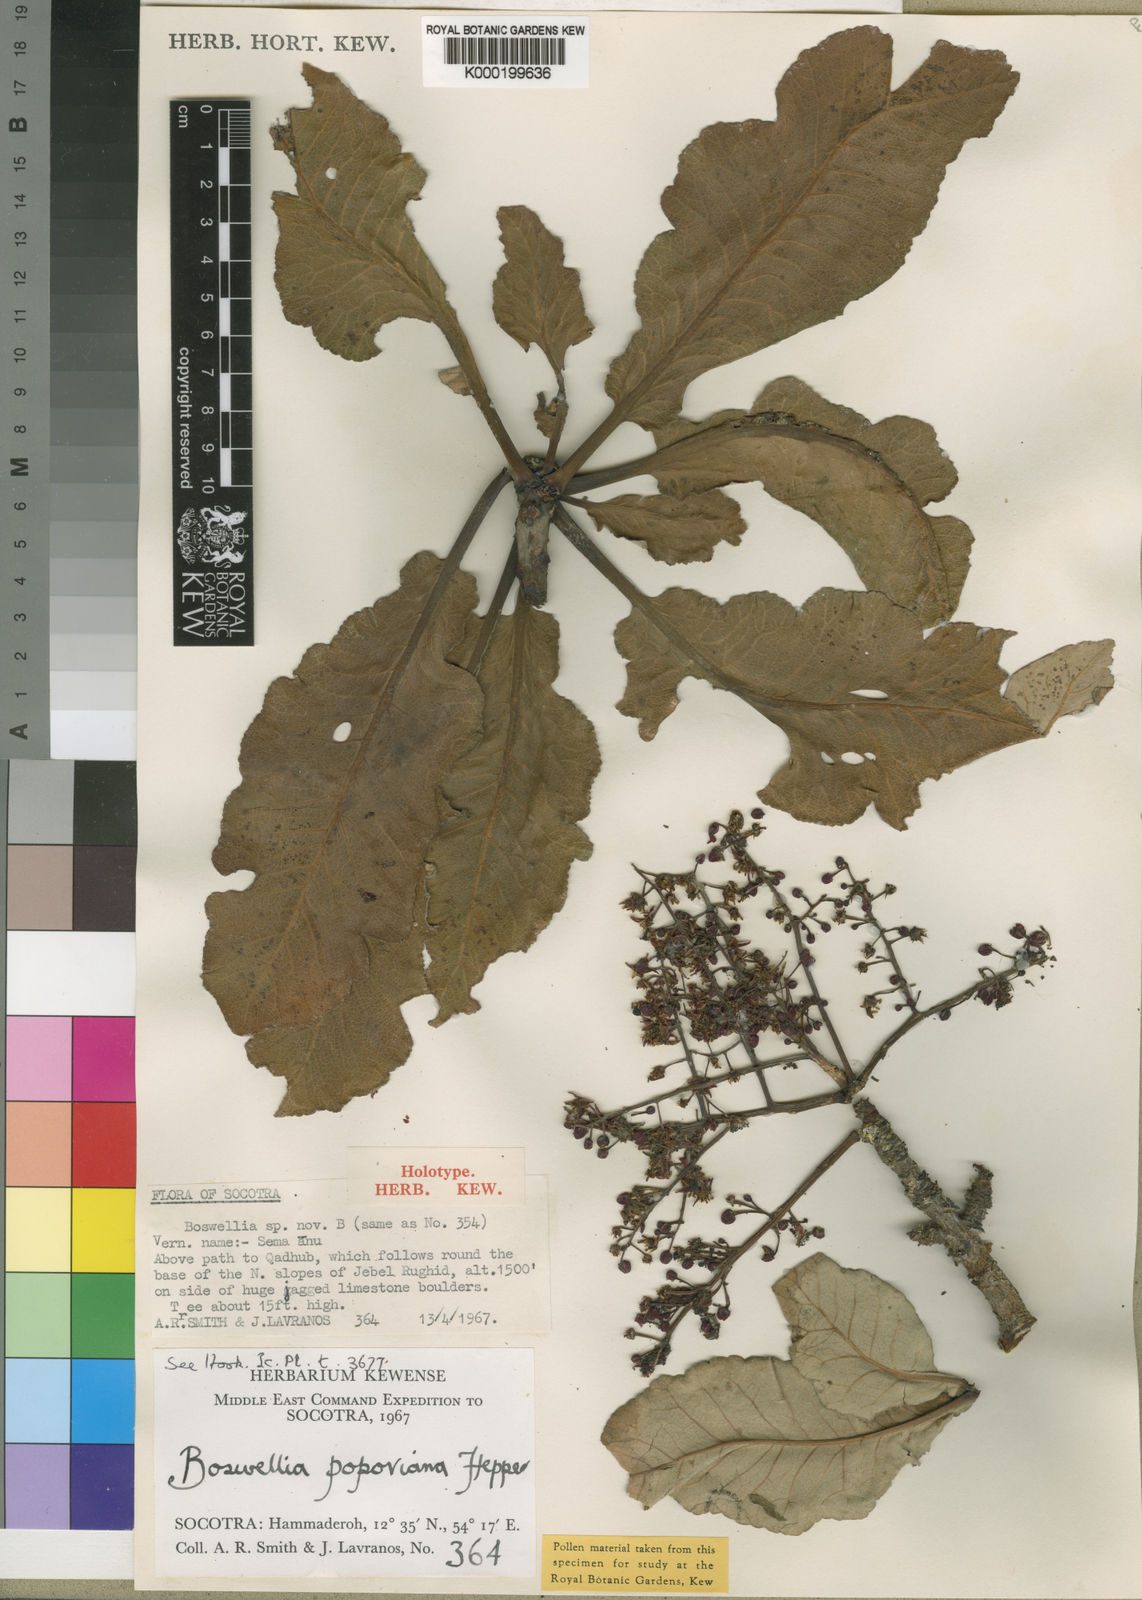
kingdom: Plantae
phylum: Tracheophyta
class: Magnoliopsida
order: Sapindales
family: Burseraceae
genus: Boswellia
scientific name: Boswellia popoviana
